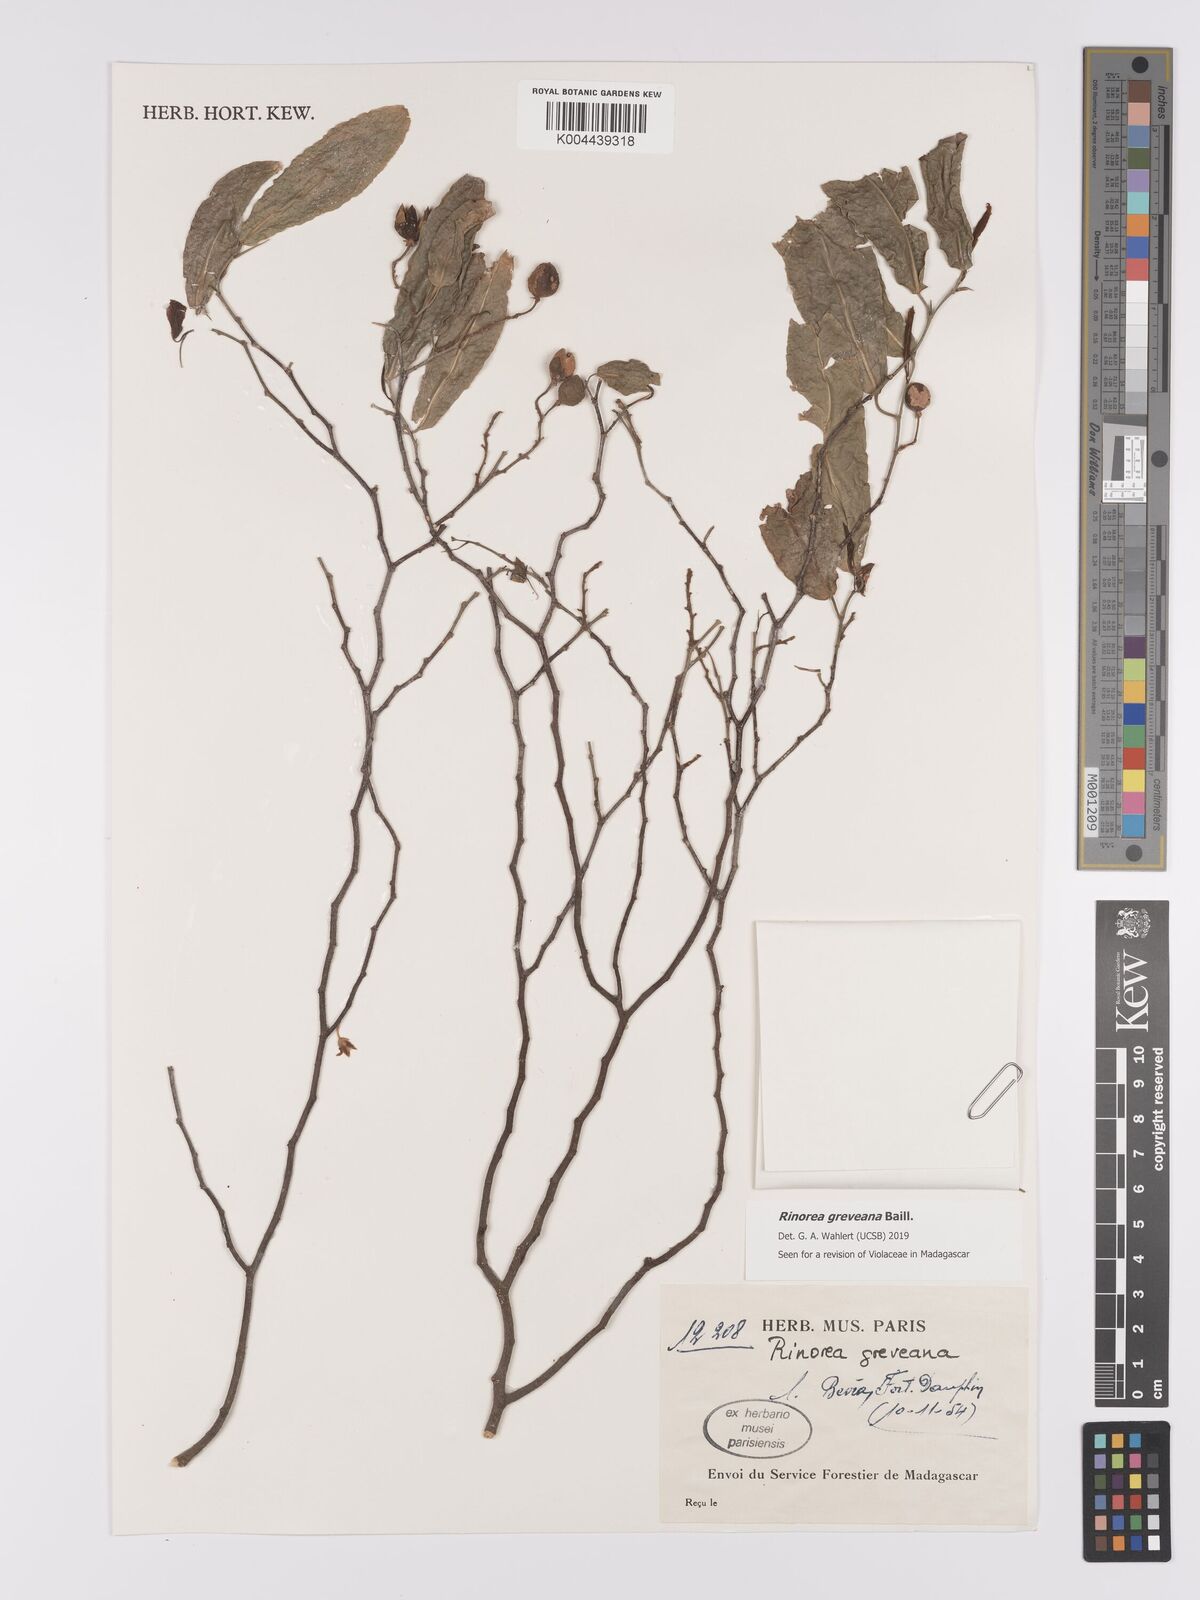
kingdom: Plantae
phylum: Tracheophyta
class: Magnoliopsida
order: Malpighiales
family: Violaceae
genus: Rinorea
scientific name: Rinorea greveana
